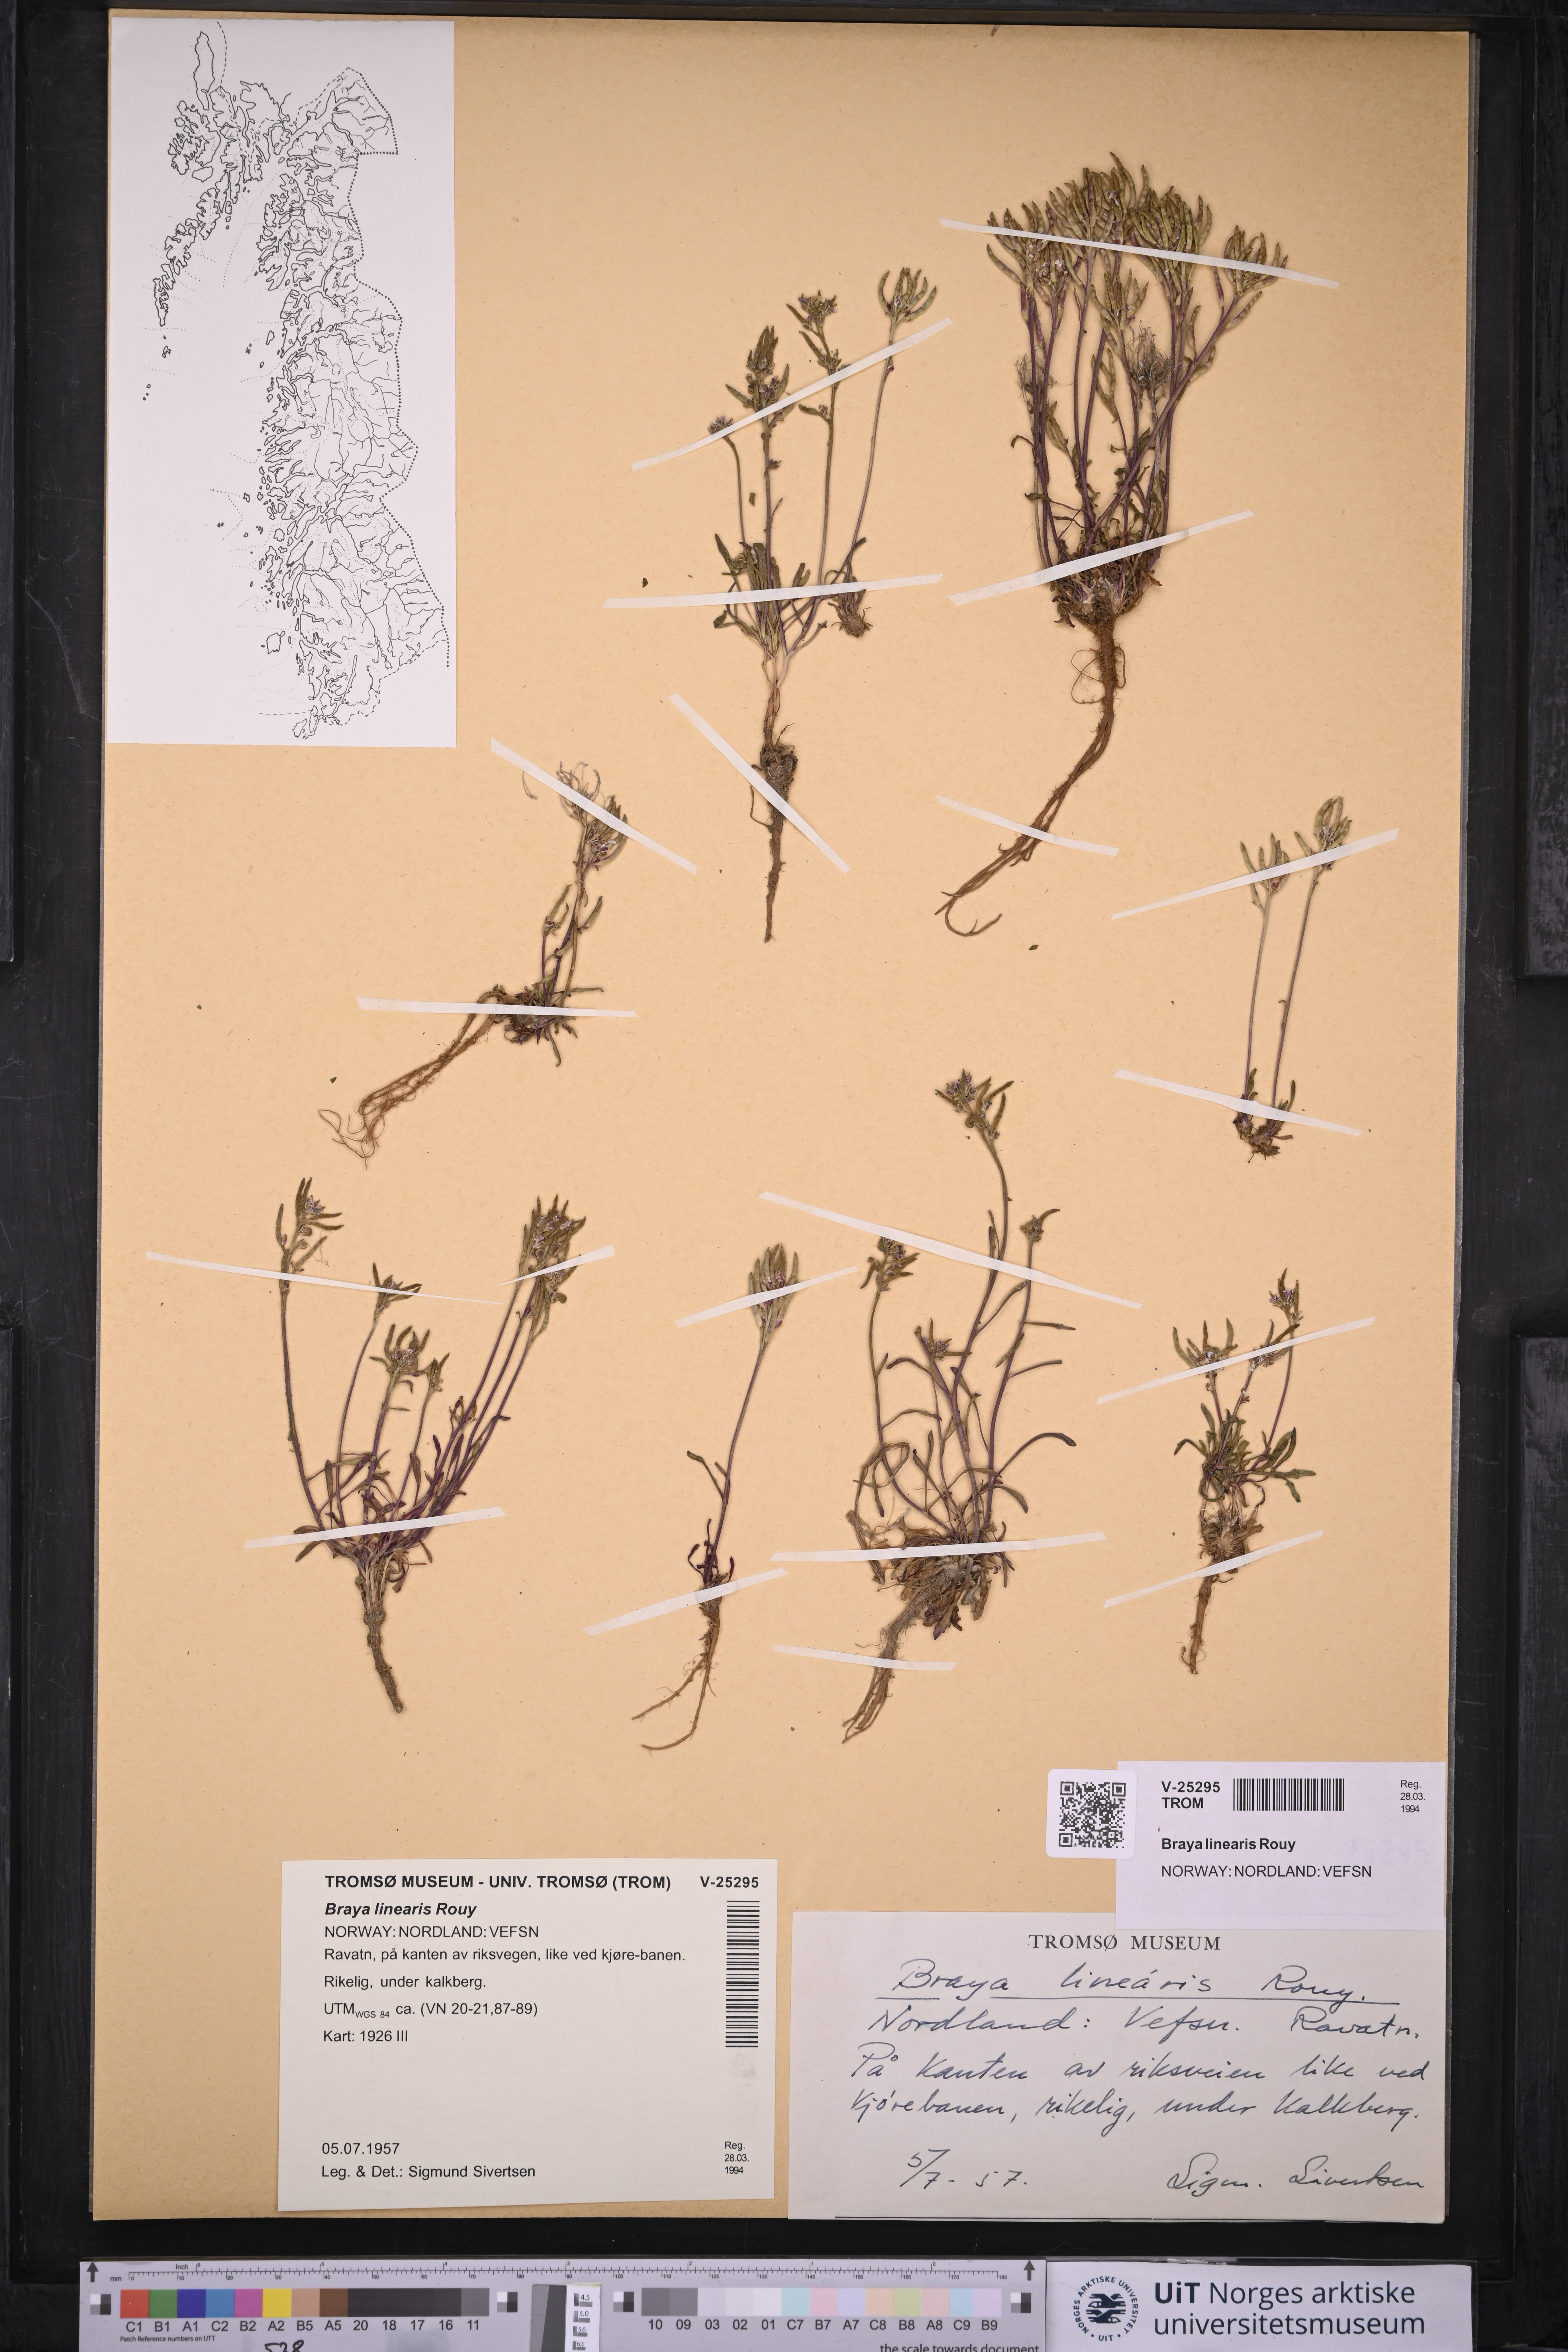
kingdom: Plantae
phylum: Tracheophyta
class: Magnoliopsida
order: Brassicales
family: Brassicaceae
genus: Braya
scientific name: Braya linearis
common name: Narrow-fruit braya
